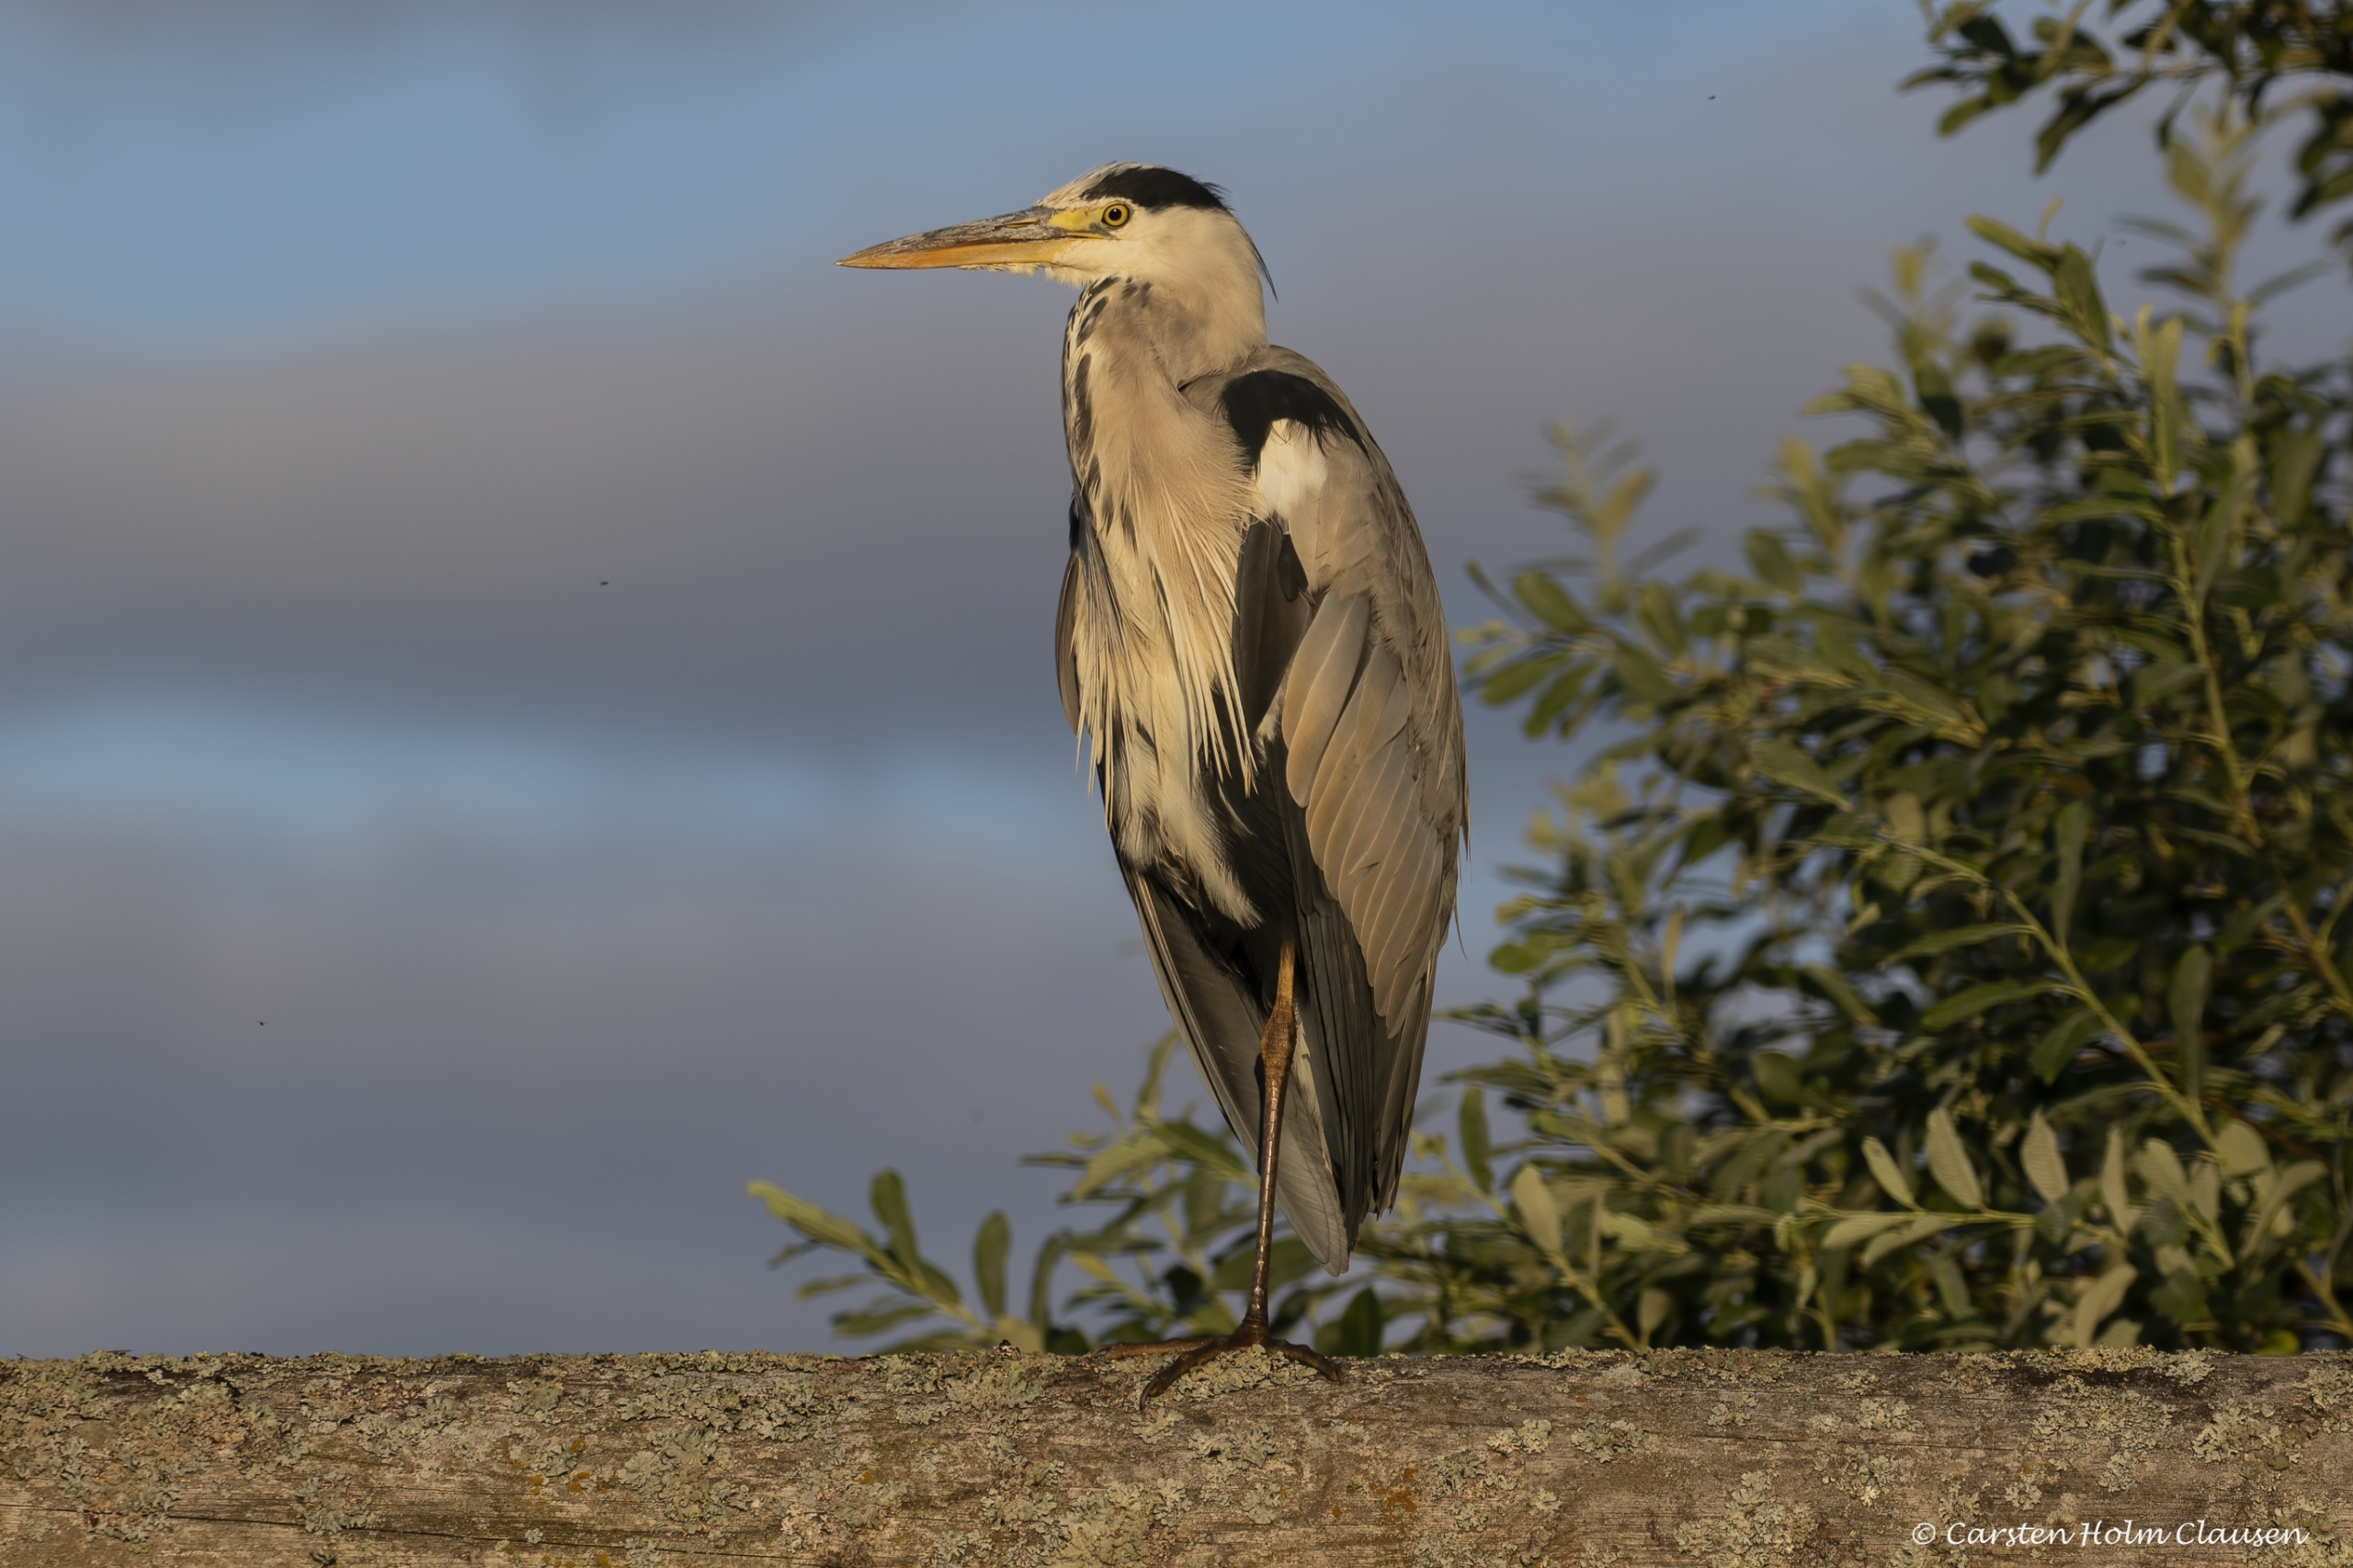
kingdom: Animalia
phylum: Chordata
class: Aves
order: Pelecaniformes
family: Ardeidae
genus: Ardea
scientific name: Ardea cinerea
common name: Fiskehejre
